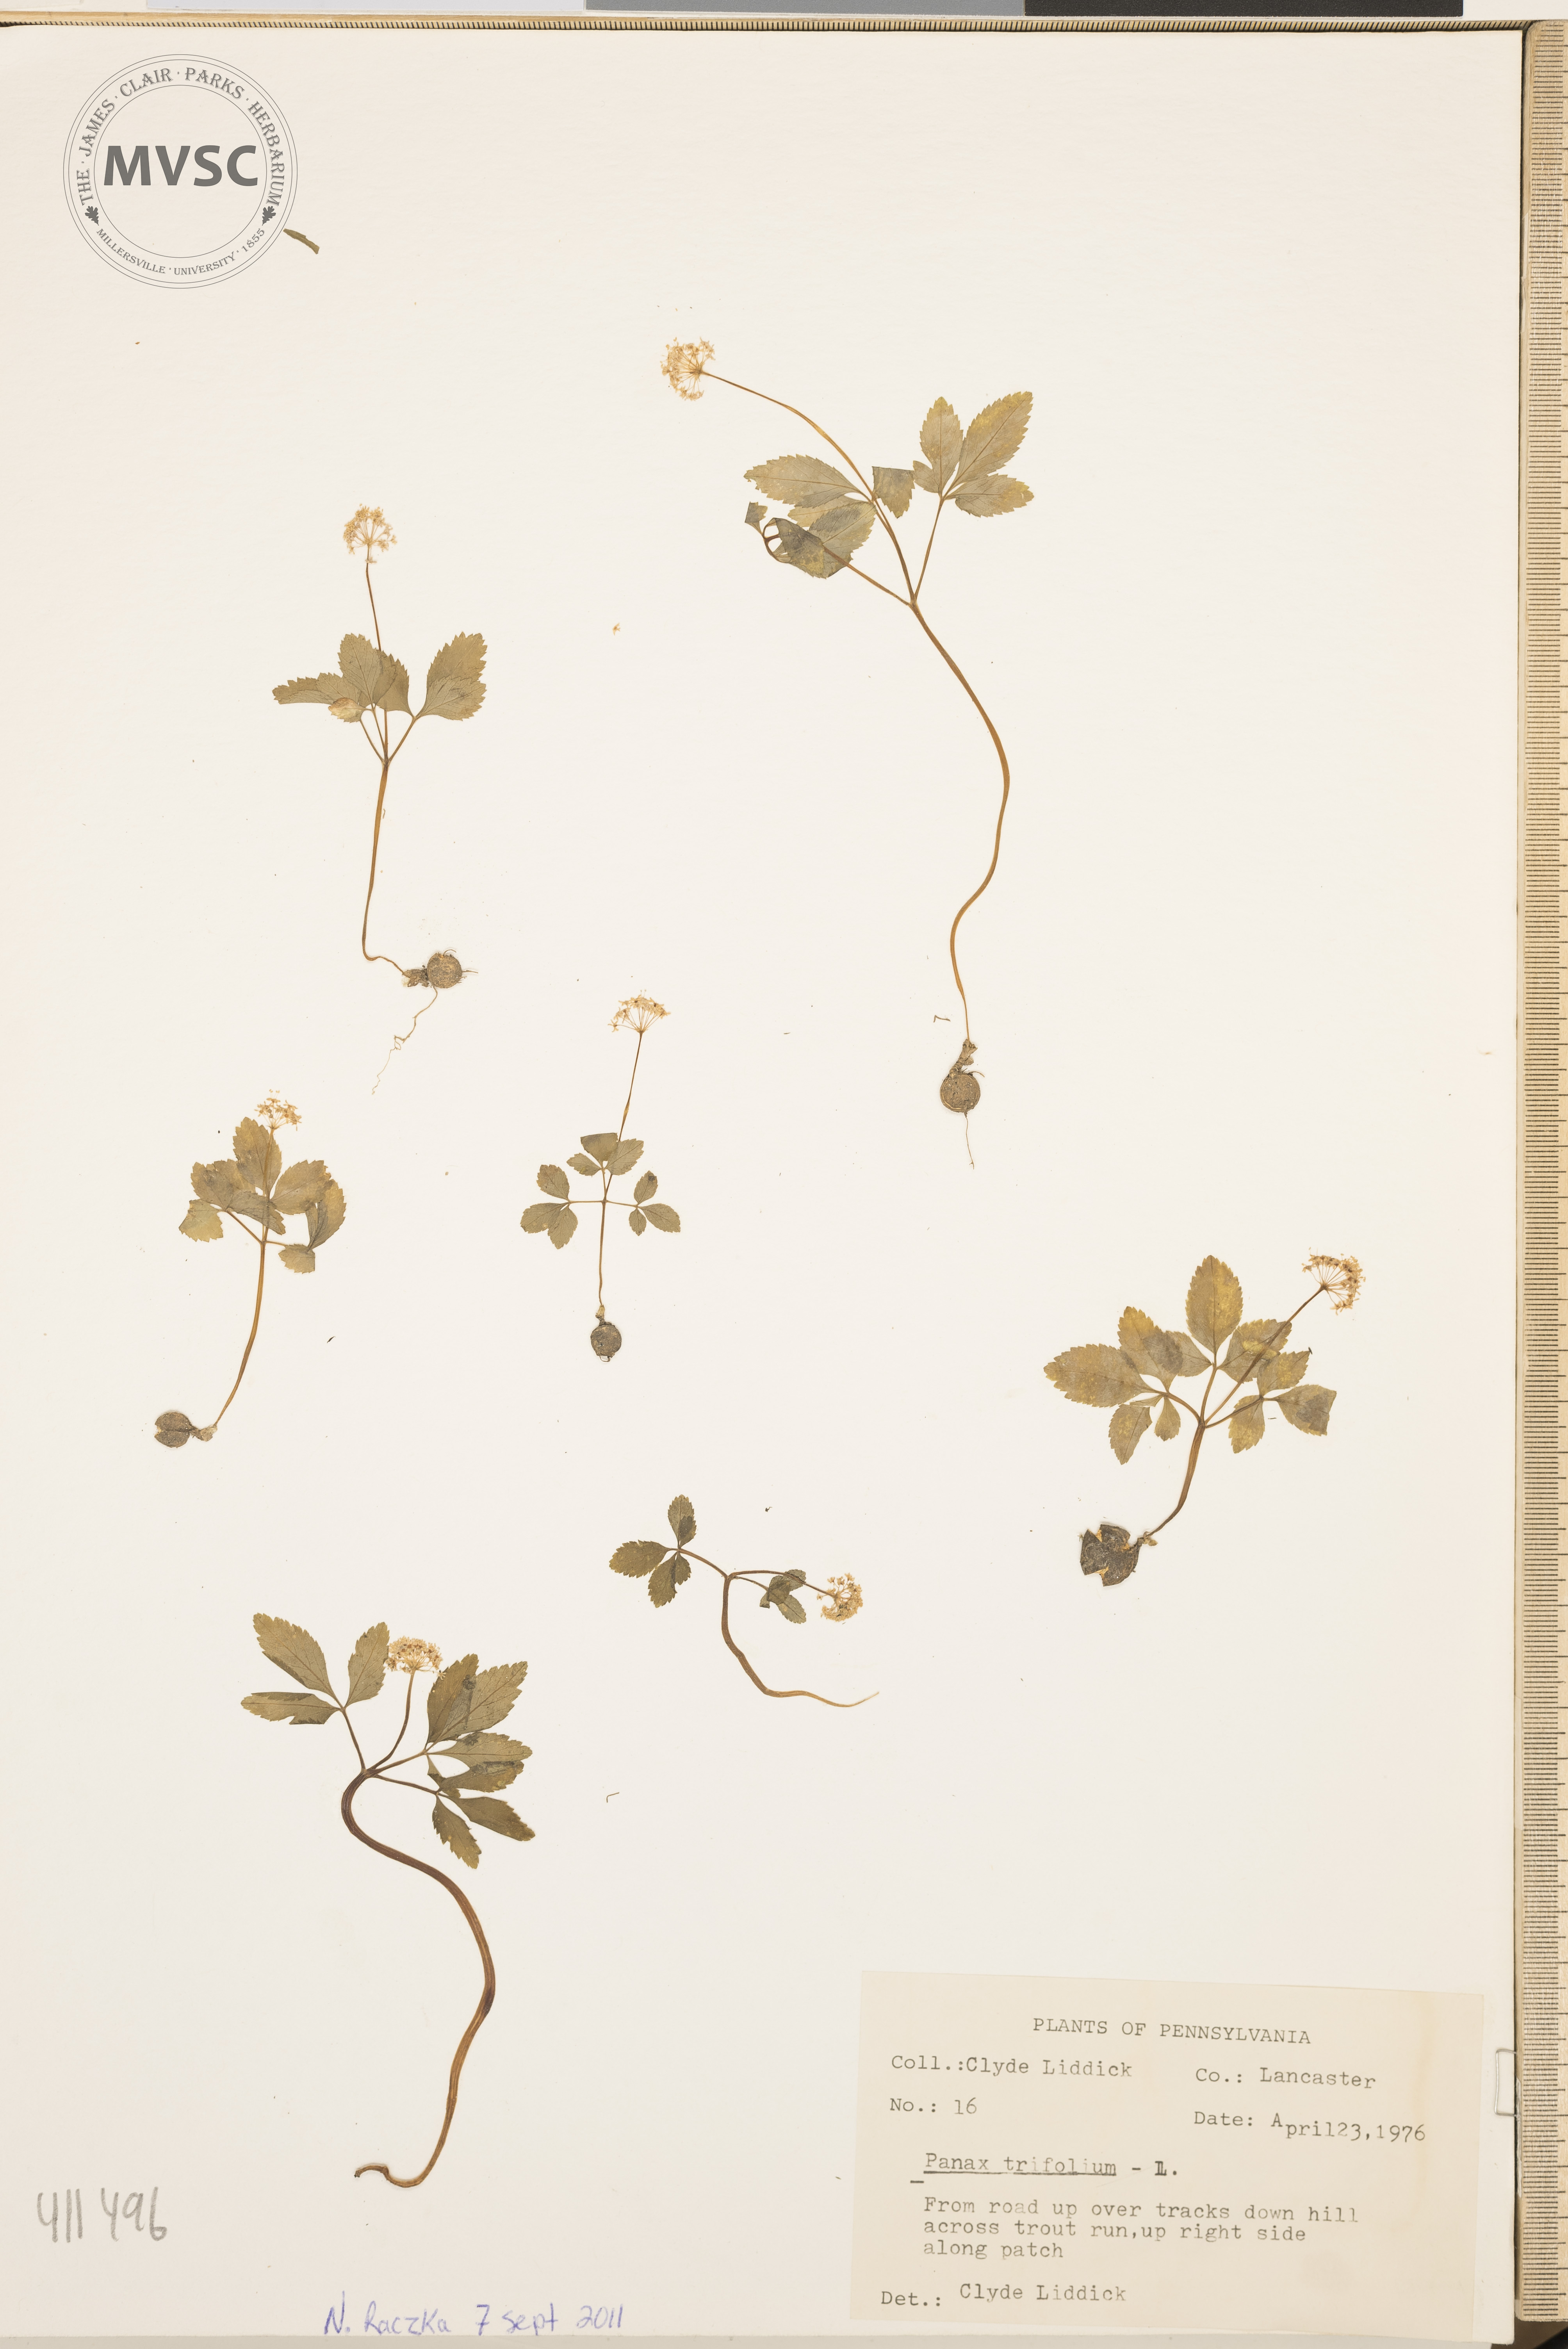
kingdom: Plantae
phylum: Tracheophyta
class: Magnoliopsida
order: Apiales
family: Araliaceae
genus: Panax
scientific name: Panax trifolius
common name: Dwarf ginseng
